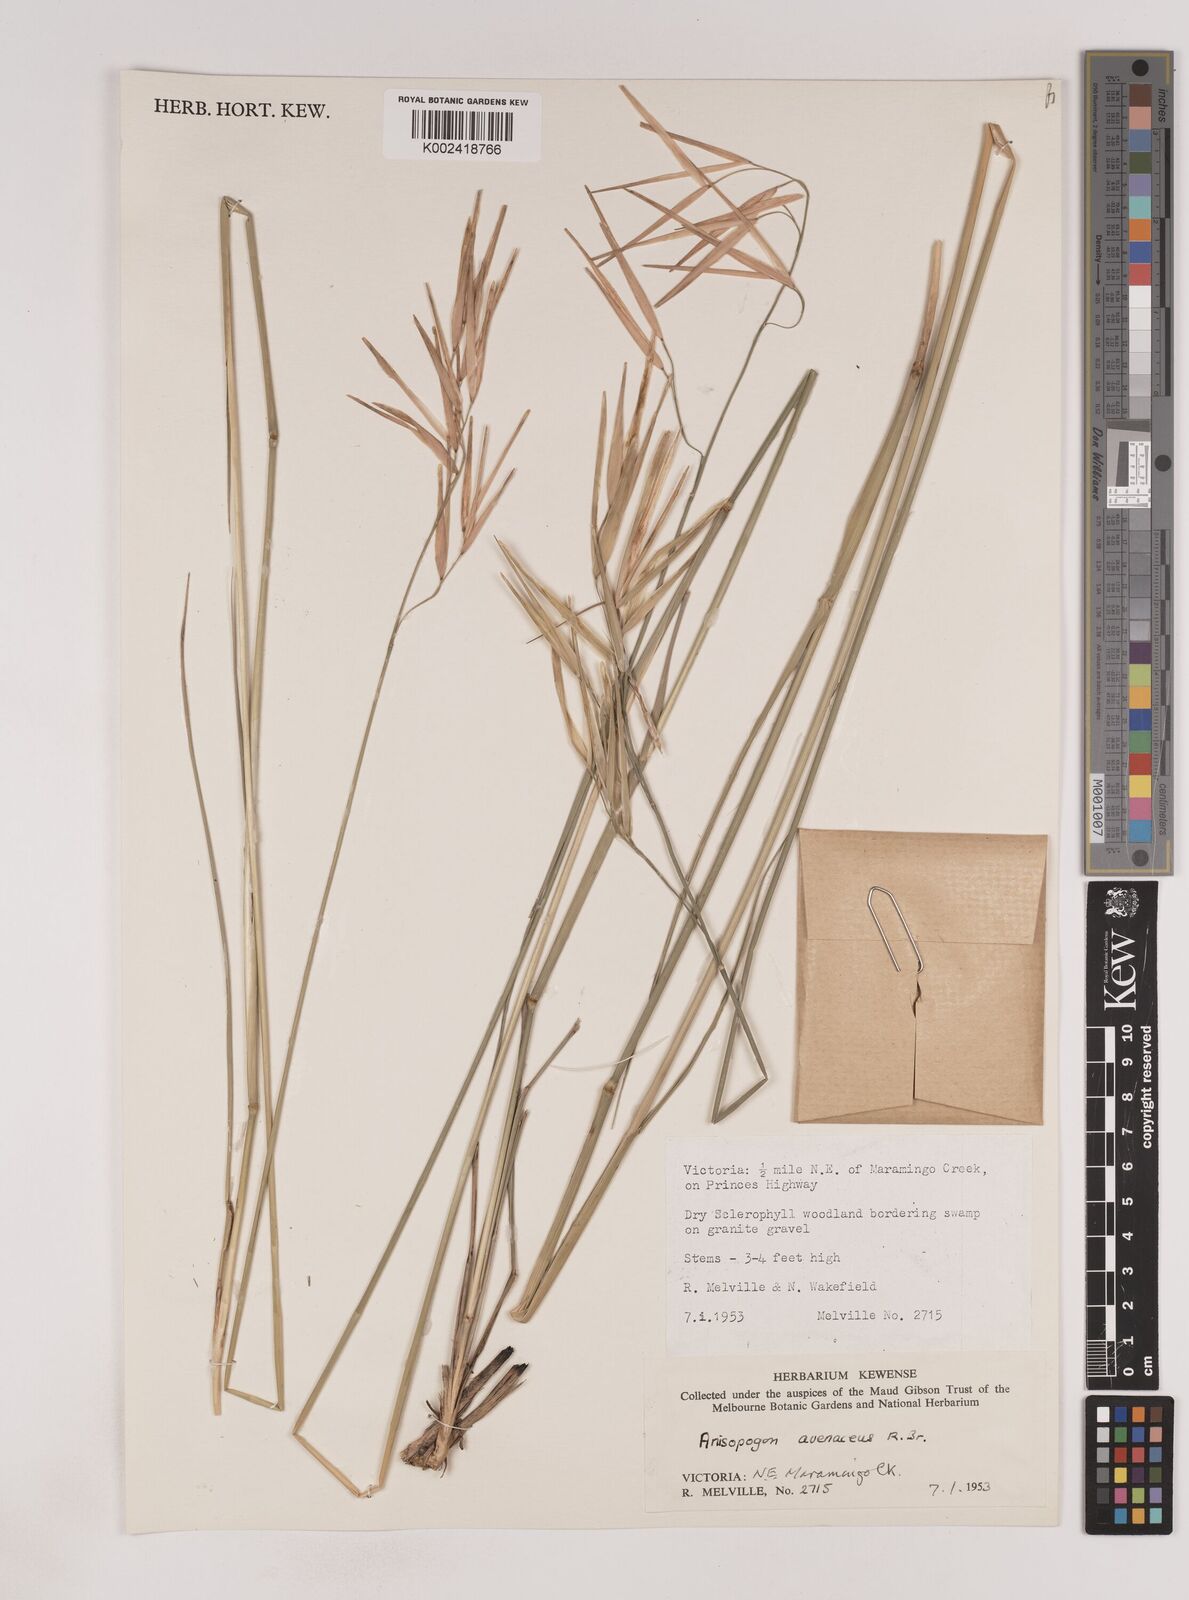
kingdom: Plantae
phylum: Tracheophyta
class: Liliopsida
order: Poales
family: Poaceae
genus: Anisopogon
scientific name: Anisopogon avenaceus
